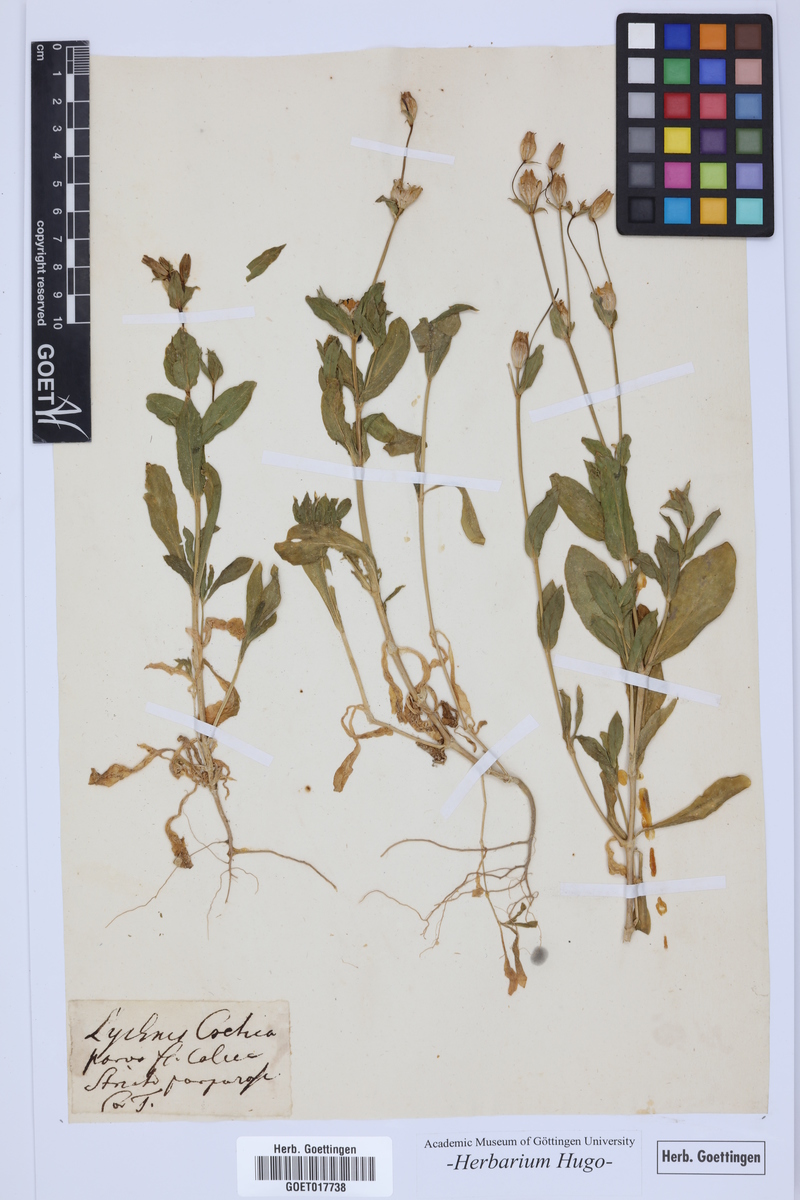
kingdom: Plantae
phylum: Tracheophyta
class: Magnoliopsida
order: Caryophyllales
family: Caryophyllaceae
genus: Silene
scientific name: Silene behen
